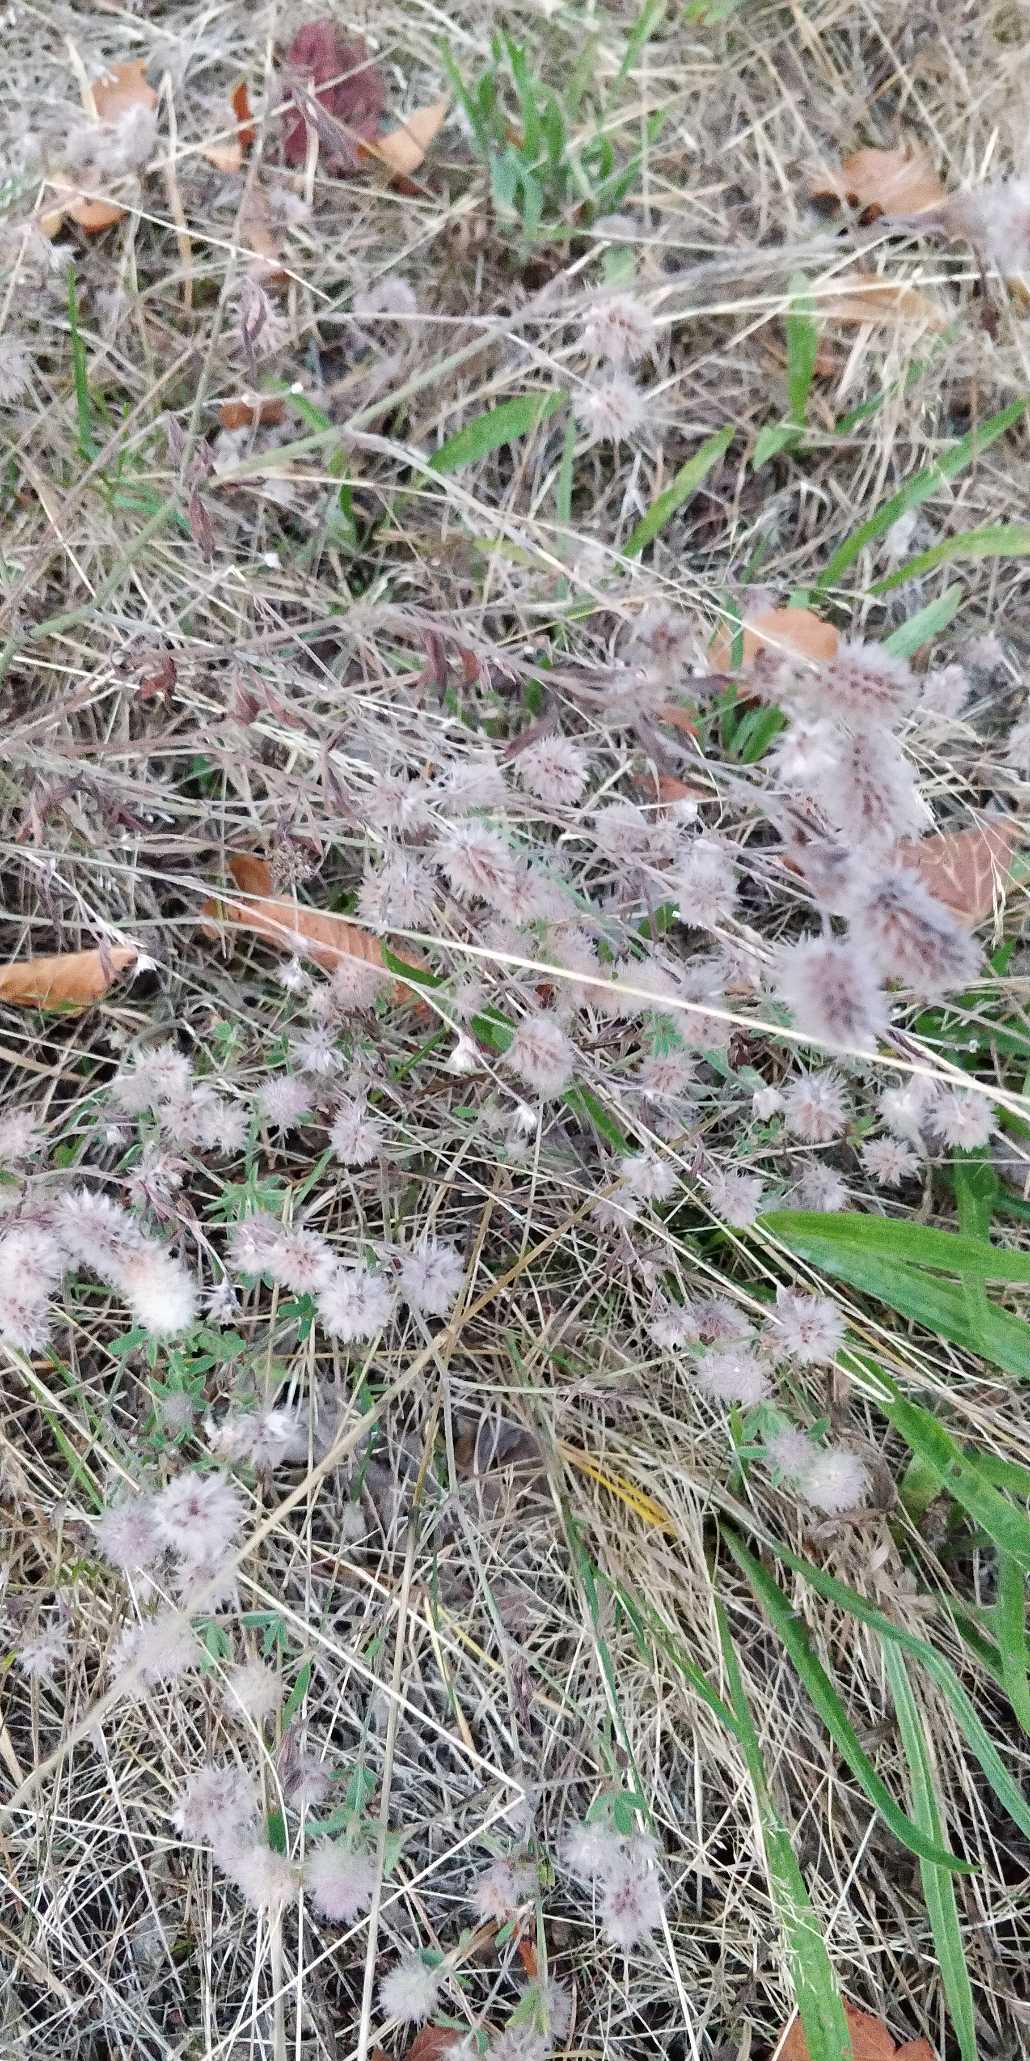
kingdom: Plantae
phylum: Tracheophyta
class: Magnoliopsida
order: Fabales
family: Fabaceae
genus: Trifolium
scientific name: Trifolium arvense
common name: Hare-kløver
